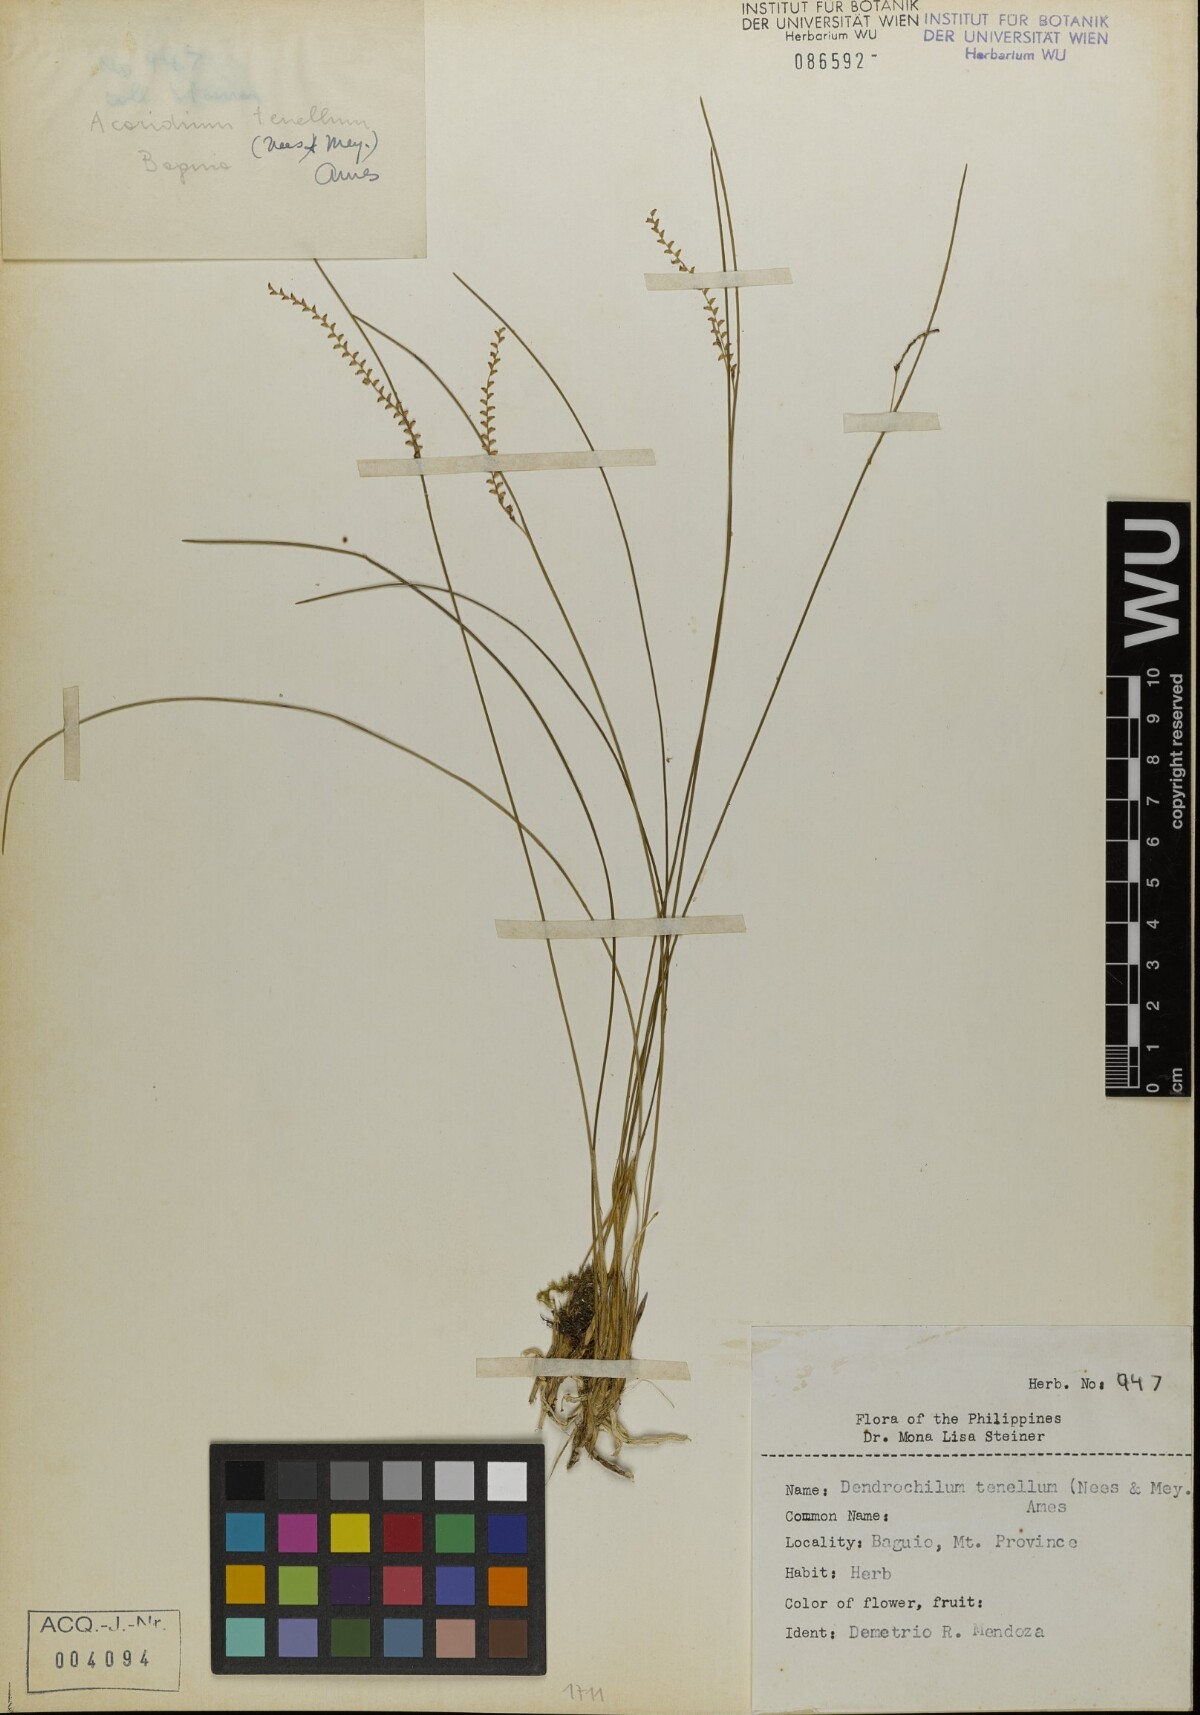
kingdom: Plantae
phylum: Tracheophyta
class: Liliopsida
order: Asparagales
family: Orchidaceae
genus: Coelogyne
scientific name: Coelogyne tenella
